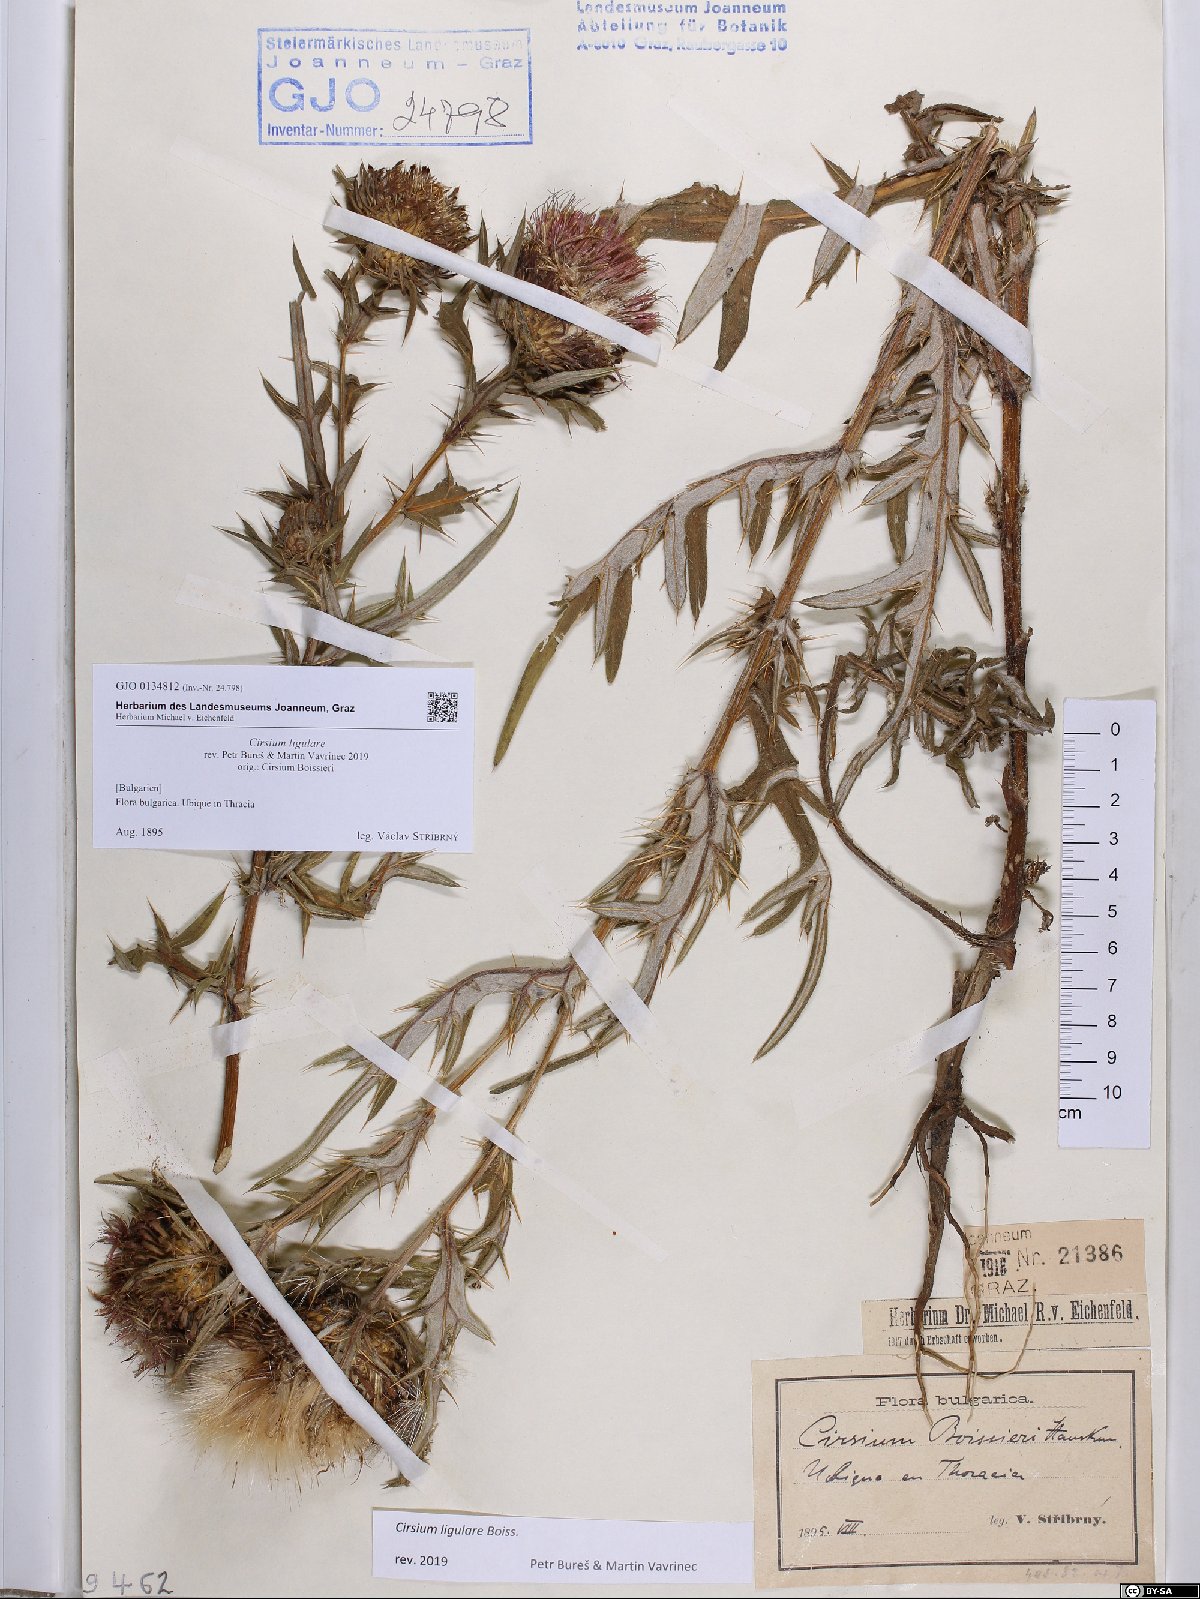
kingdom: Plantae
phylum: Tracheophyta
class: Magnoliopsida
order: Asterales
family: Asteraceae
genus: Lophiolepis
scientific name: Lophiolepis ligularis
